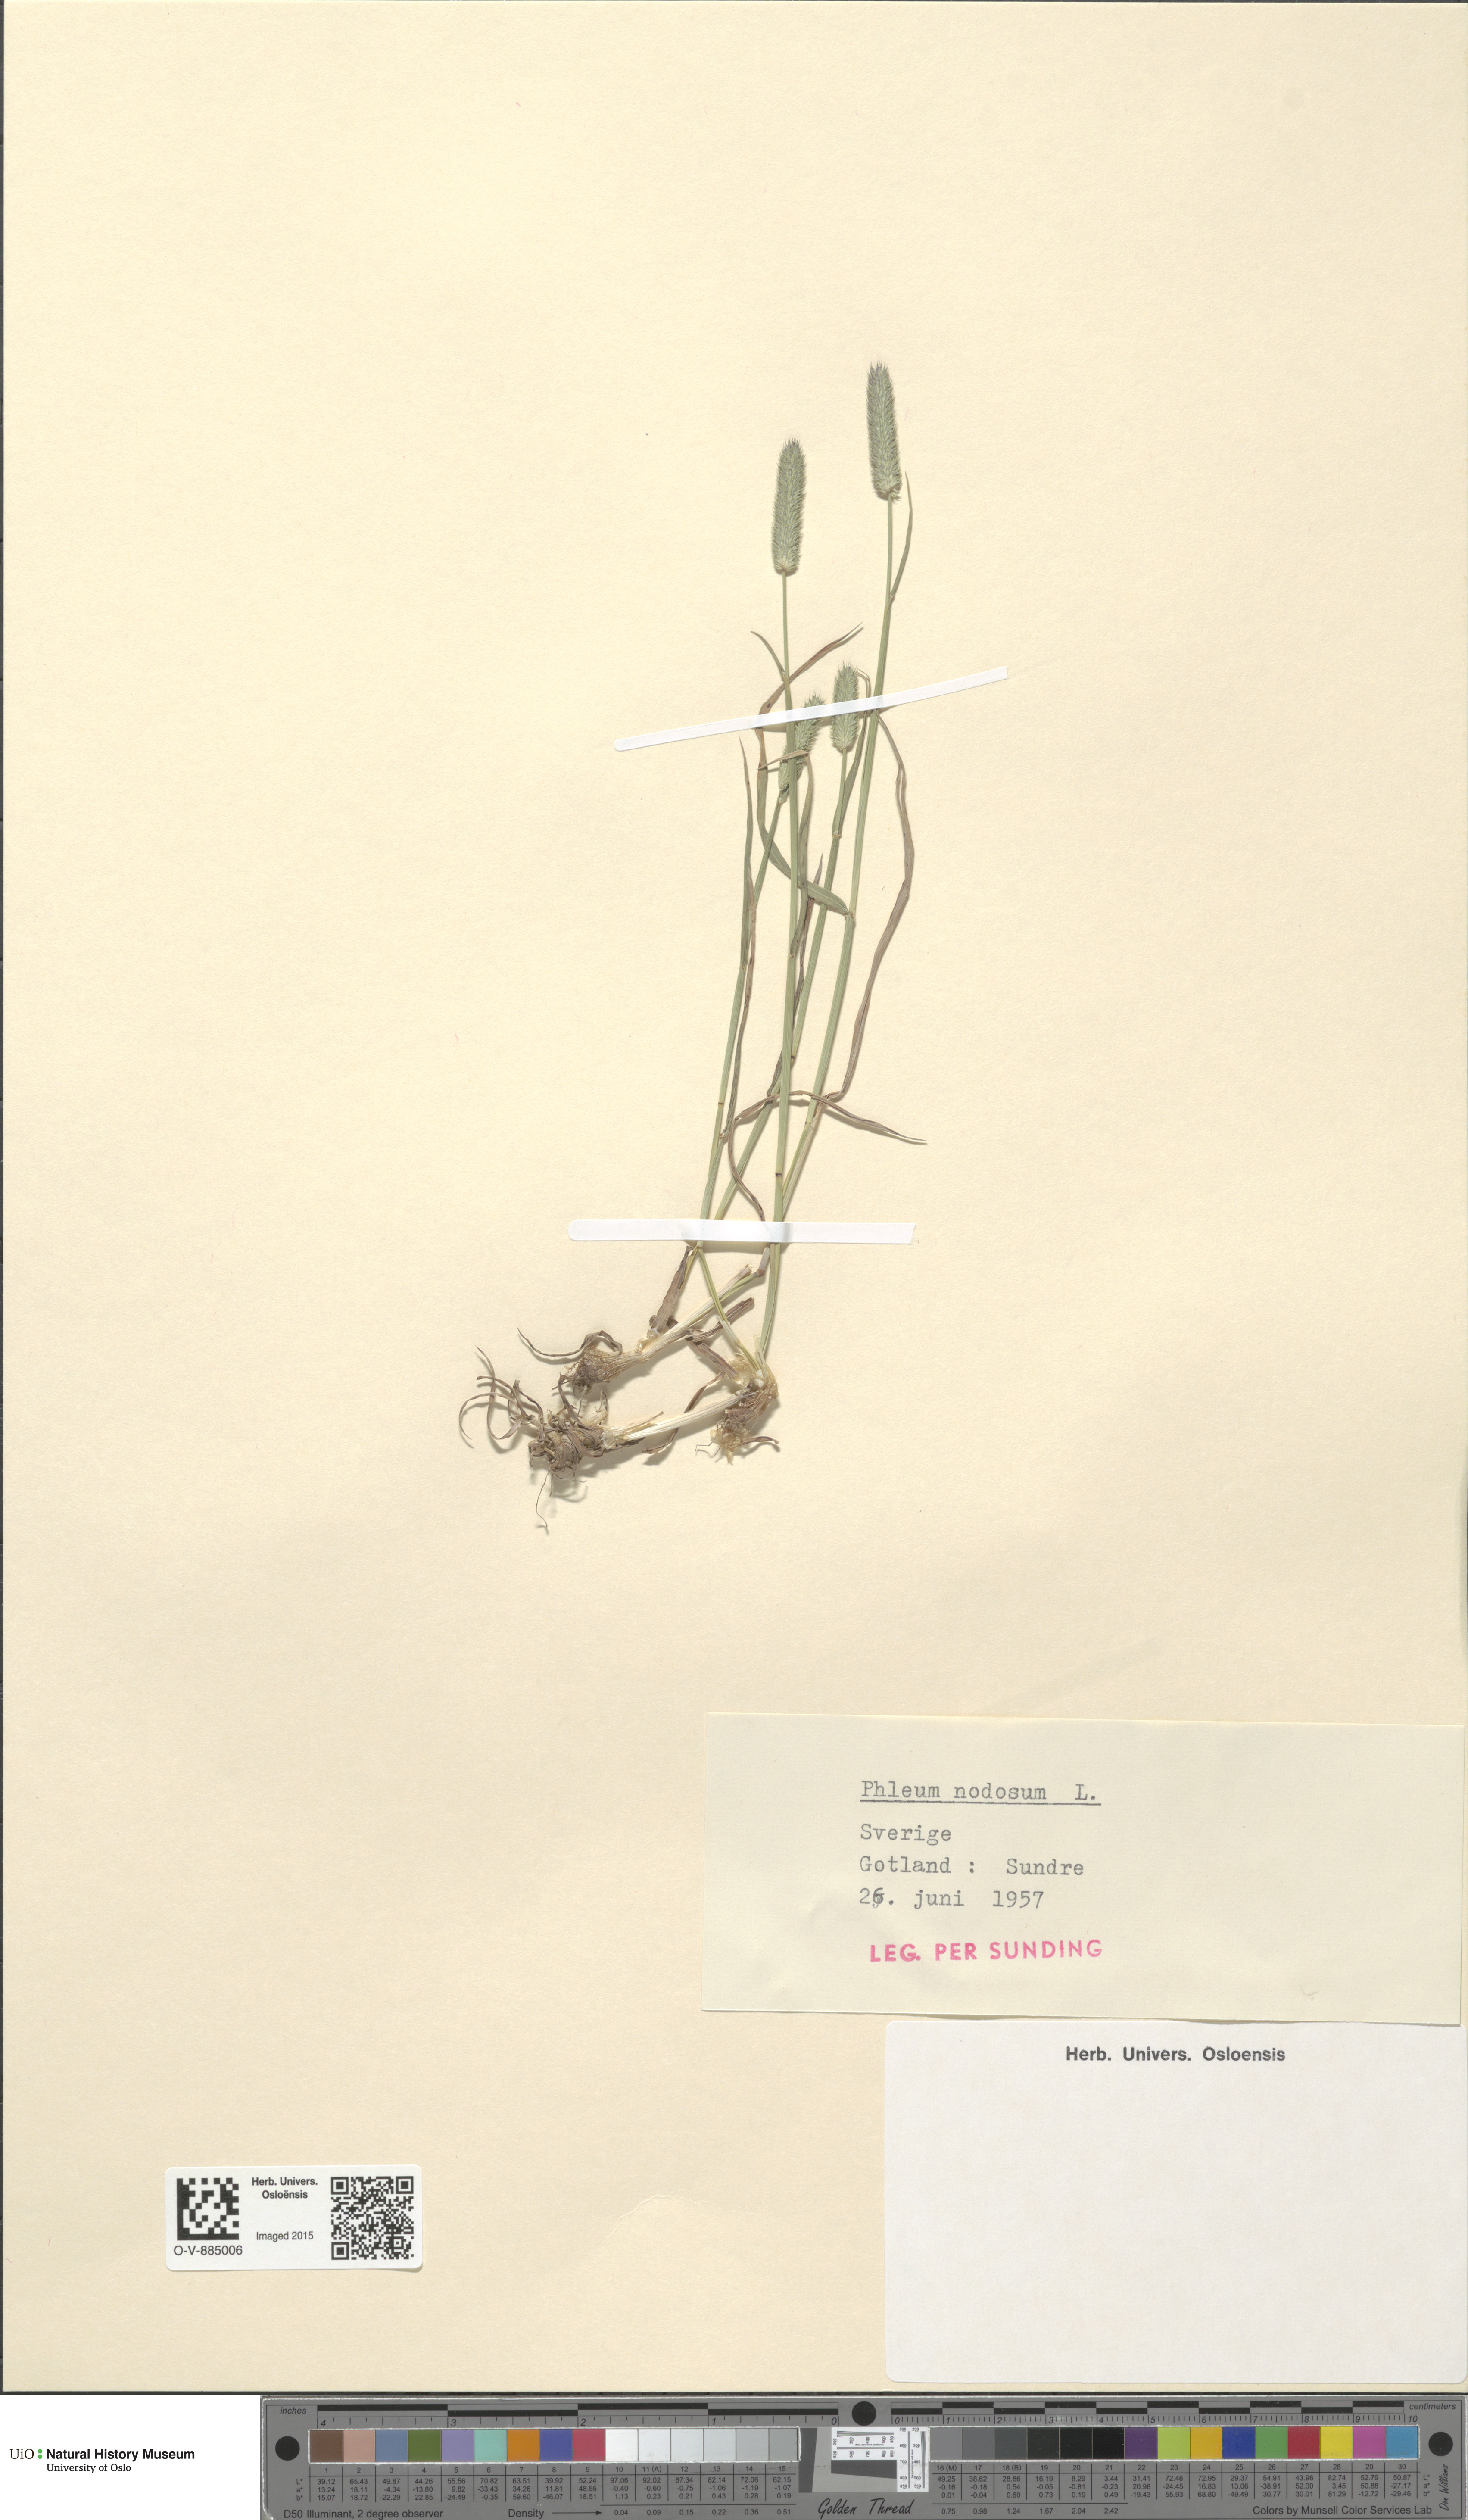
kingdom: Plantae
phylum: Tracheophyta
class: Liliopsida
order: Poales
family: Poaceae
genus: Phleum
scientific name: Phleum bertolonii
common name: Smaller cat's-tail
